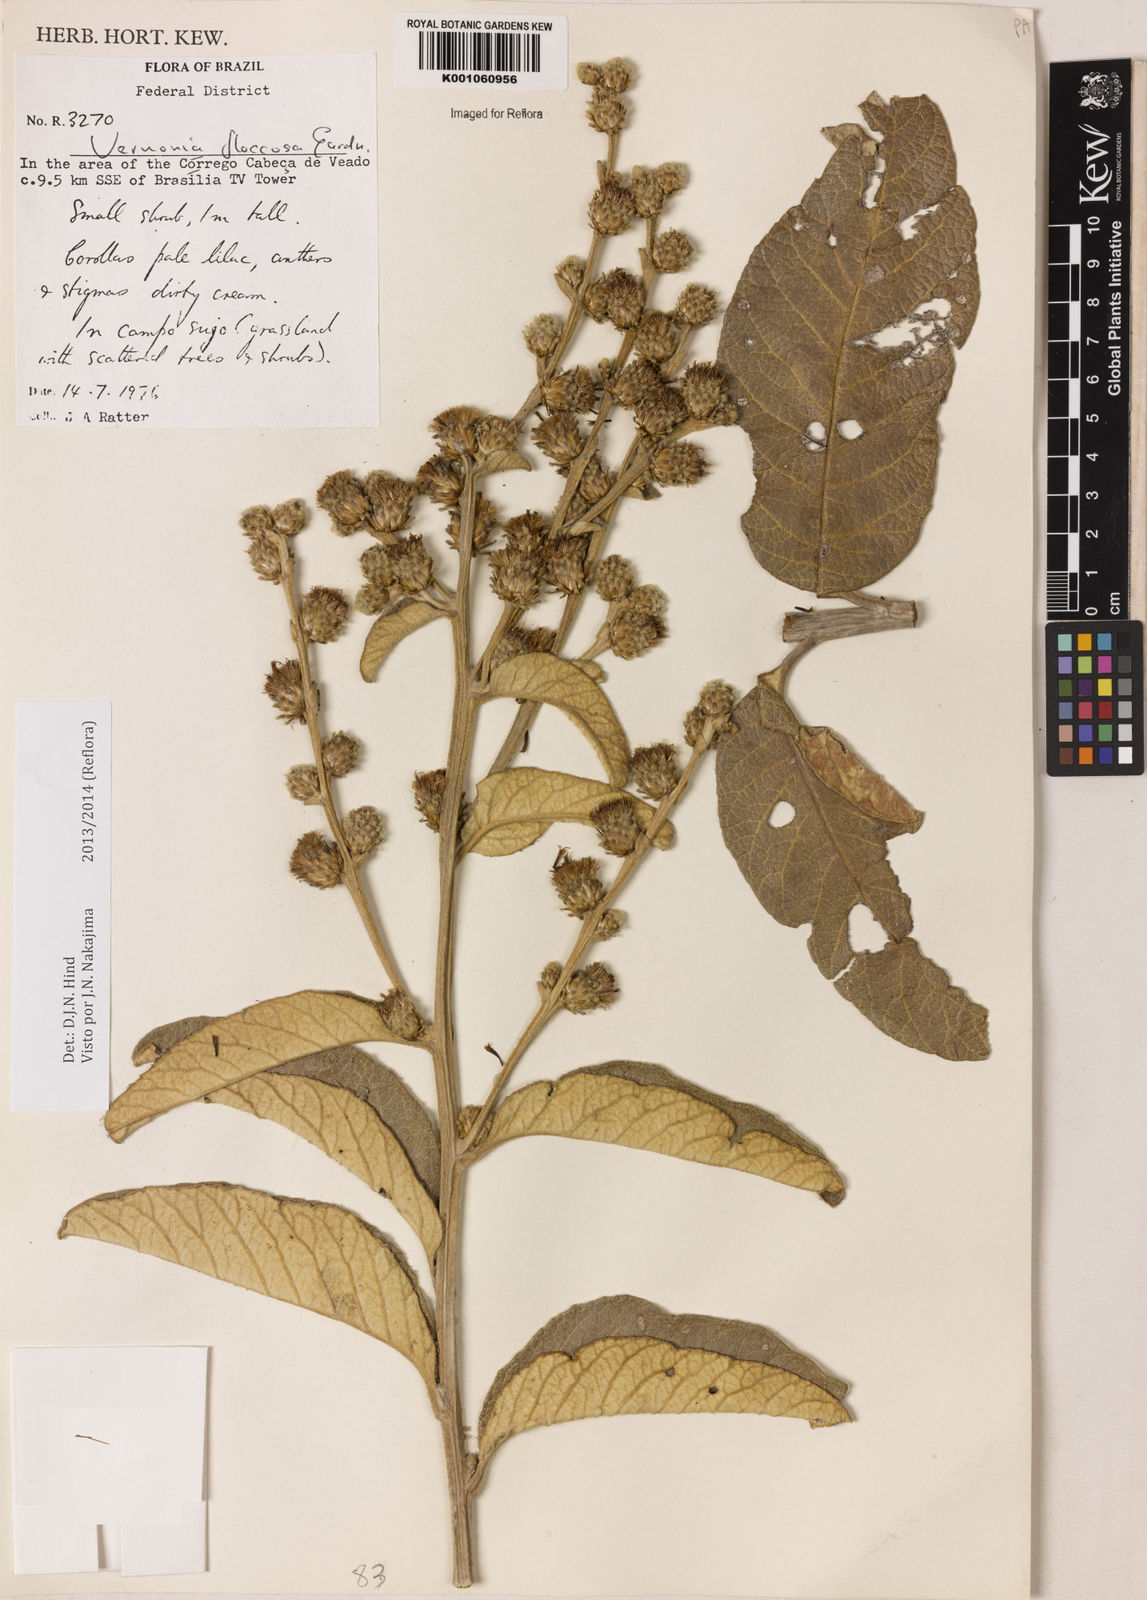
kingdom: Plantae
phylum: Tracheophyta
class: Magnoliopsida
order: Asterales
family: Asteraceae
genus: Lessingianthus
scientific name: Lessingianthus floccosus
